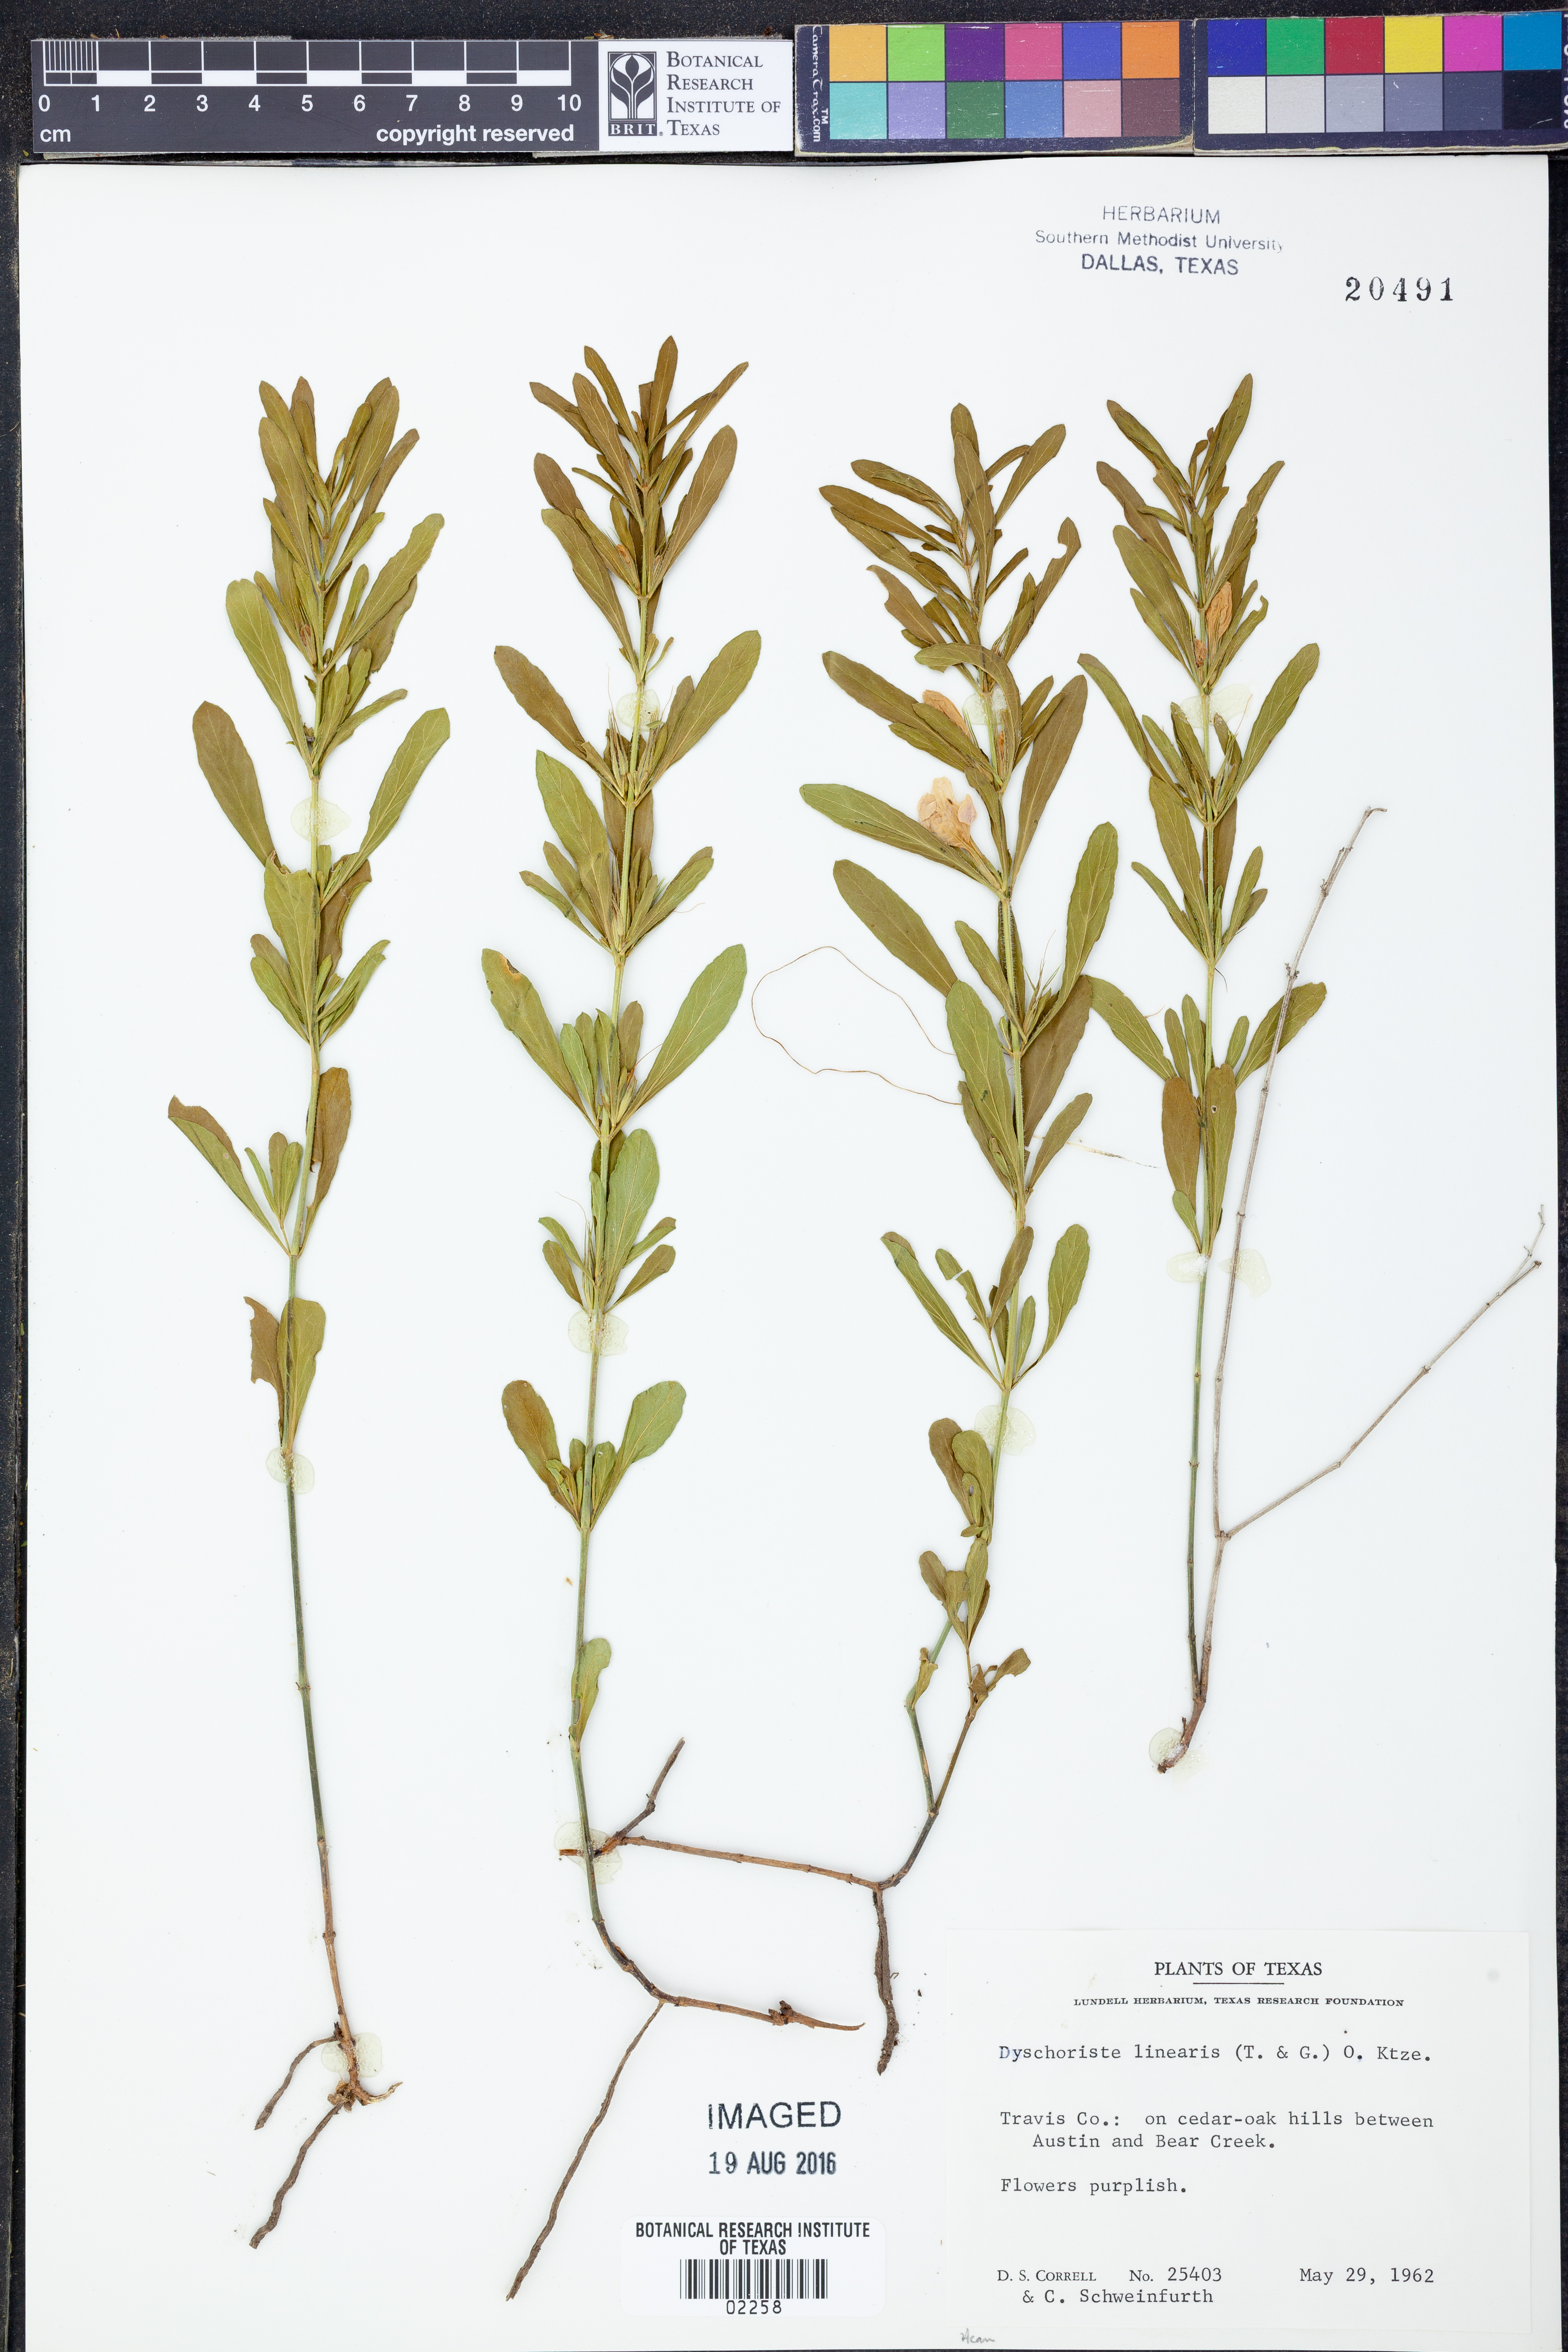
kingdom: Plantae
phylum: Tracheophyta
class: Magnoliopsida
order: Lamiales
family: Acanthaceae
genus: Dyschoriste
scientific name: Dyschoriste linearis
